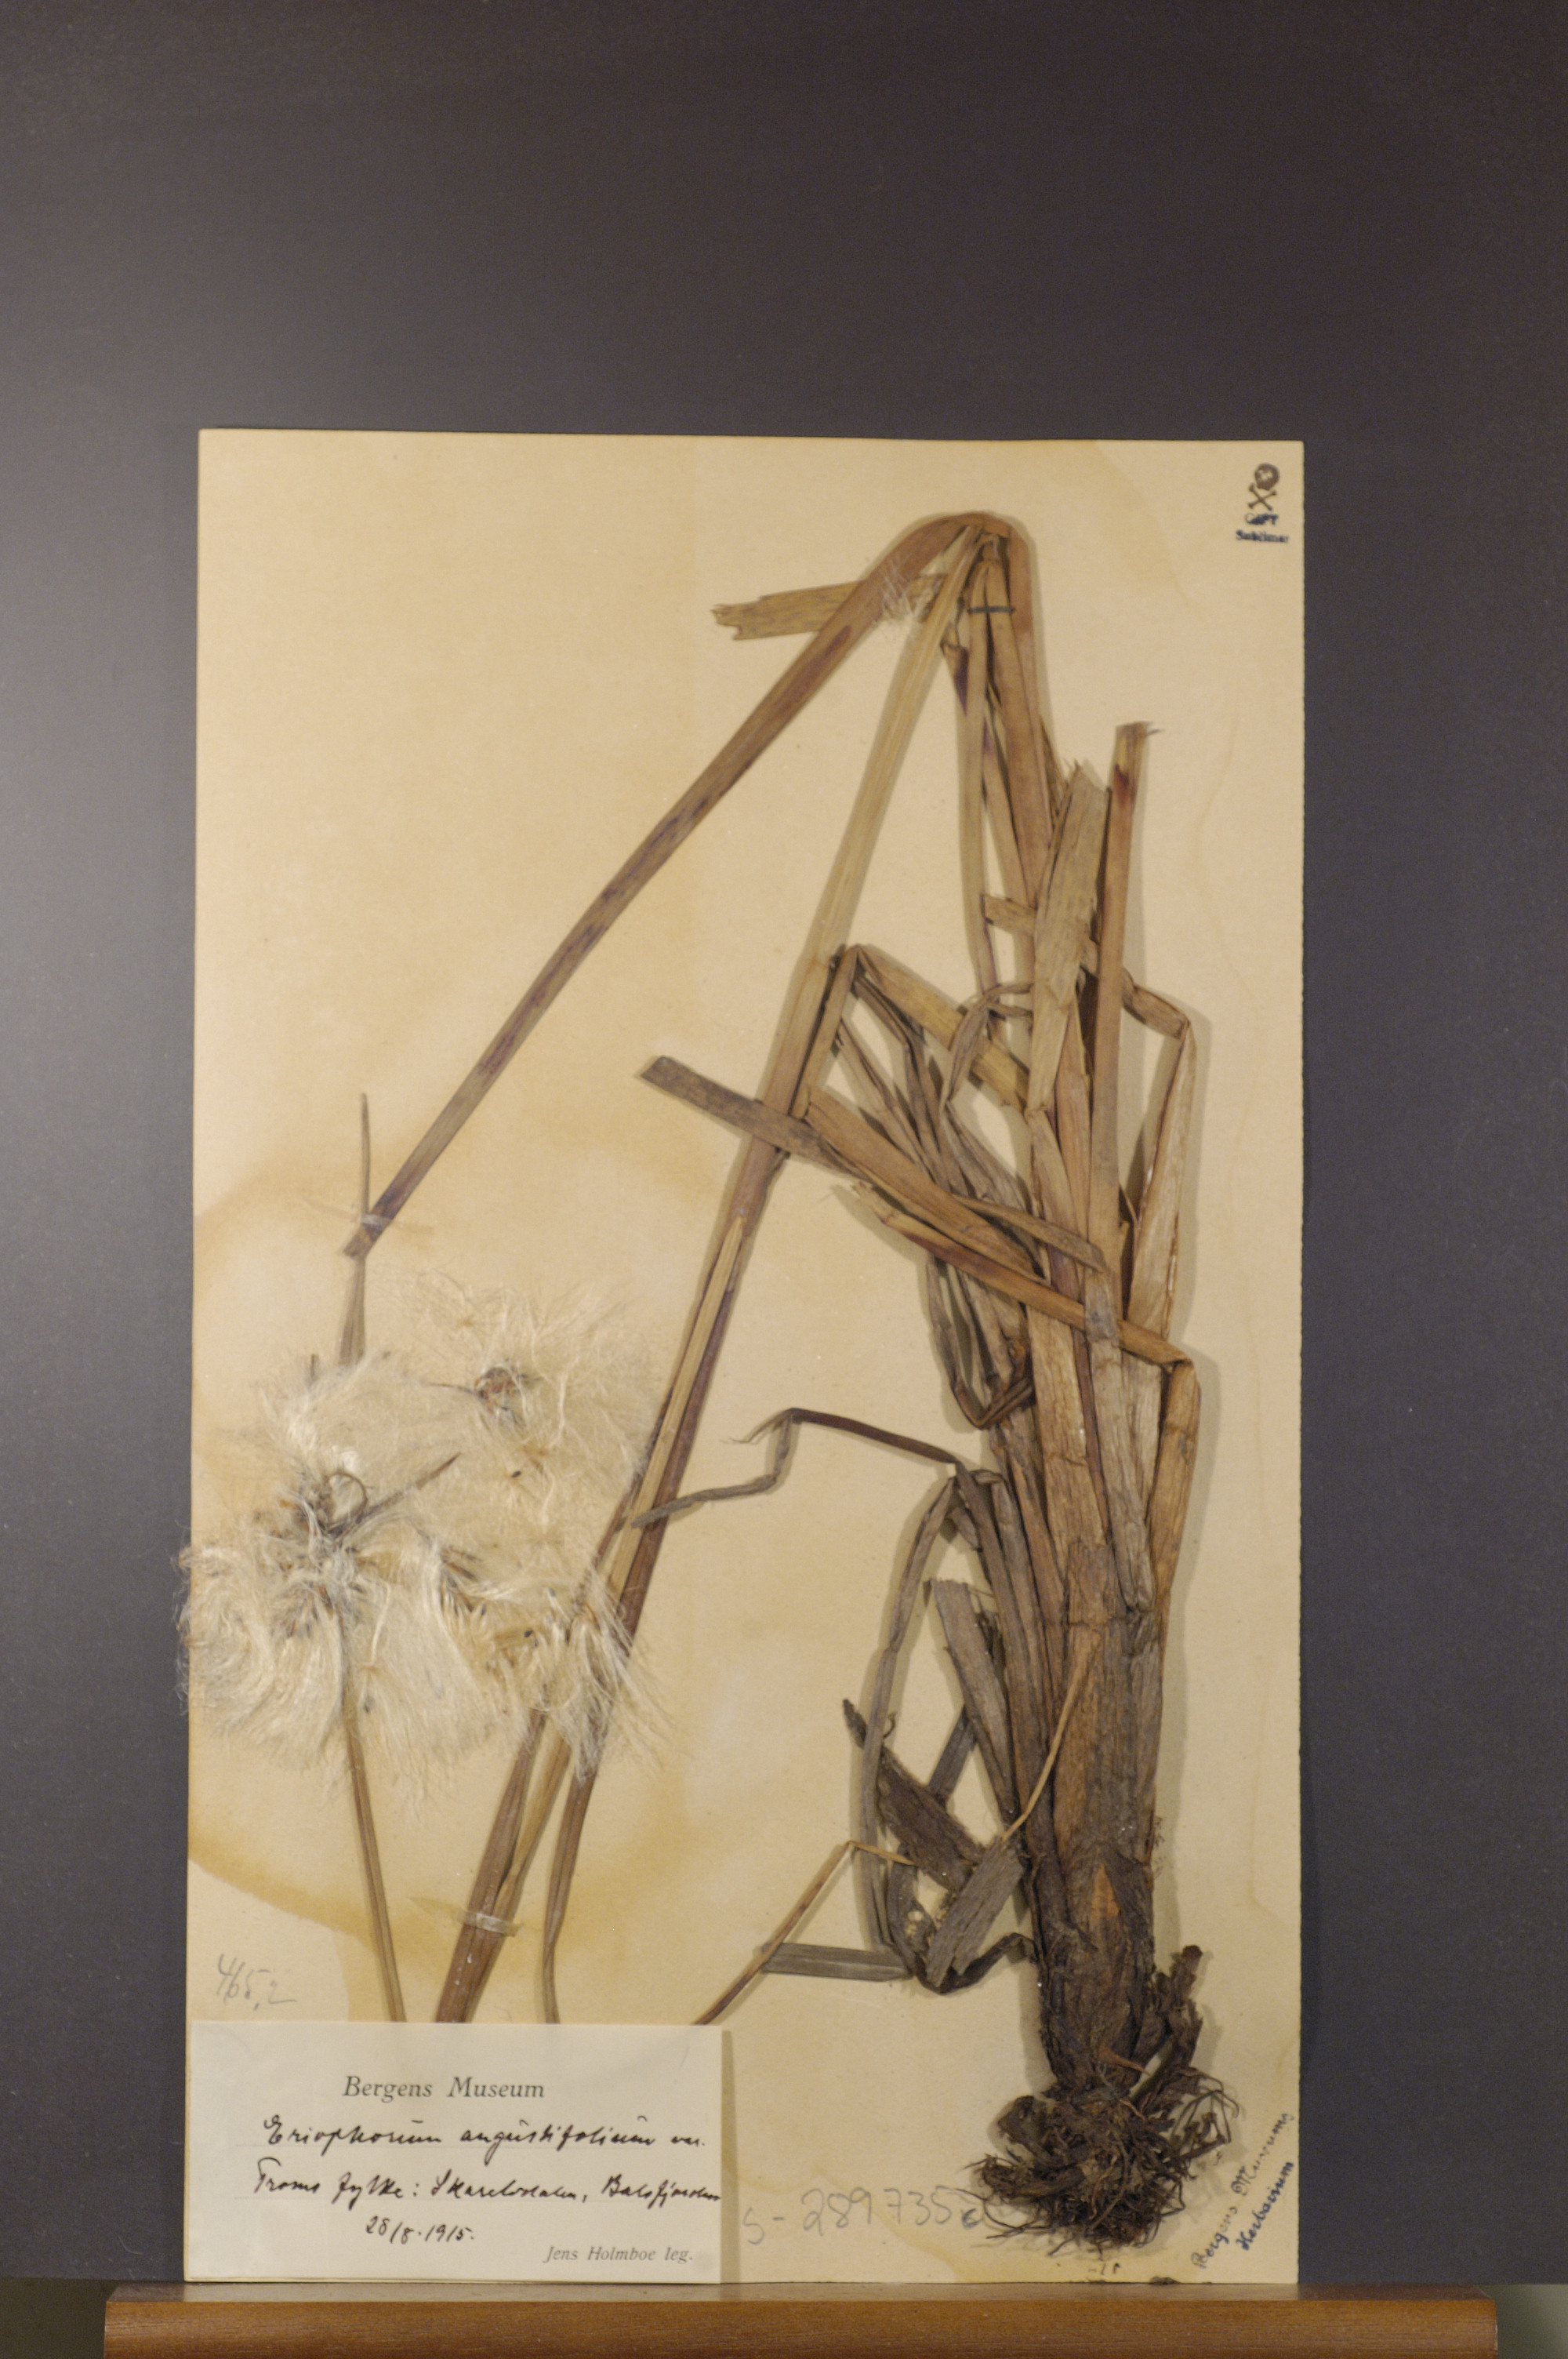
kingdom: Plantae
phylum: Tracheophyta
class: Liliopsida
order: Poales
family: Cyperaceae
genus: Eriophorum
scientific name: Eriophorum angustifolium
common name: Common cottongrass
